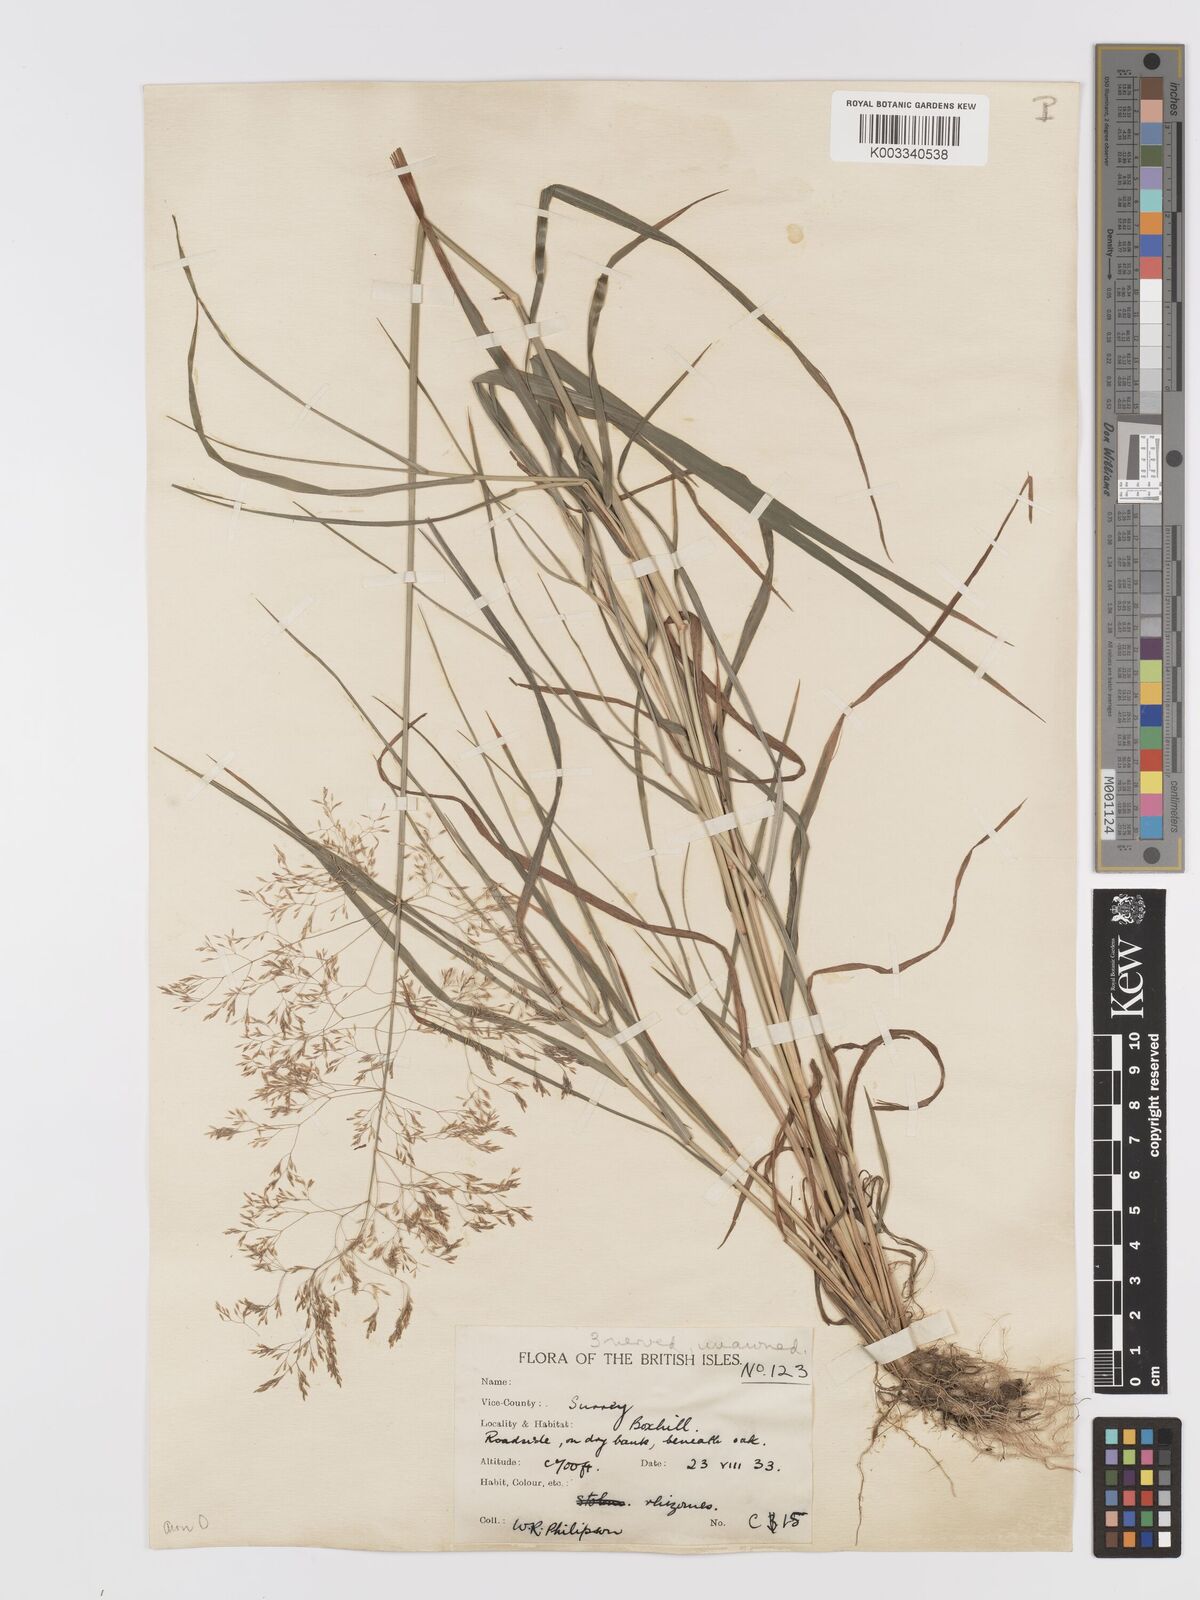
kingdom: Plantae
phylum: Tracheophyta
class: Liliopsida
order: Poales
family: Poaceae
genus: Agrostis
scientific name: Agrostis capillaris
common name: Colonial bentgrass
